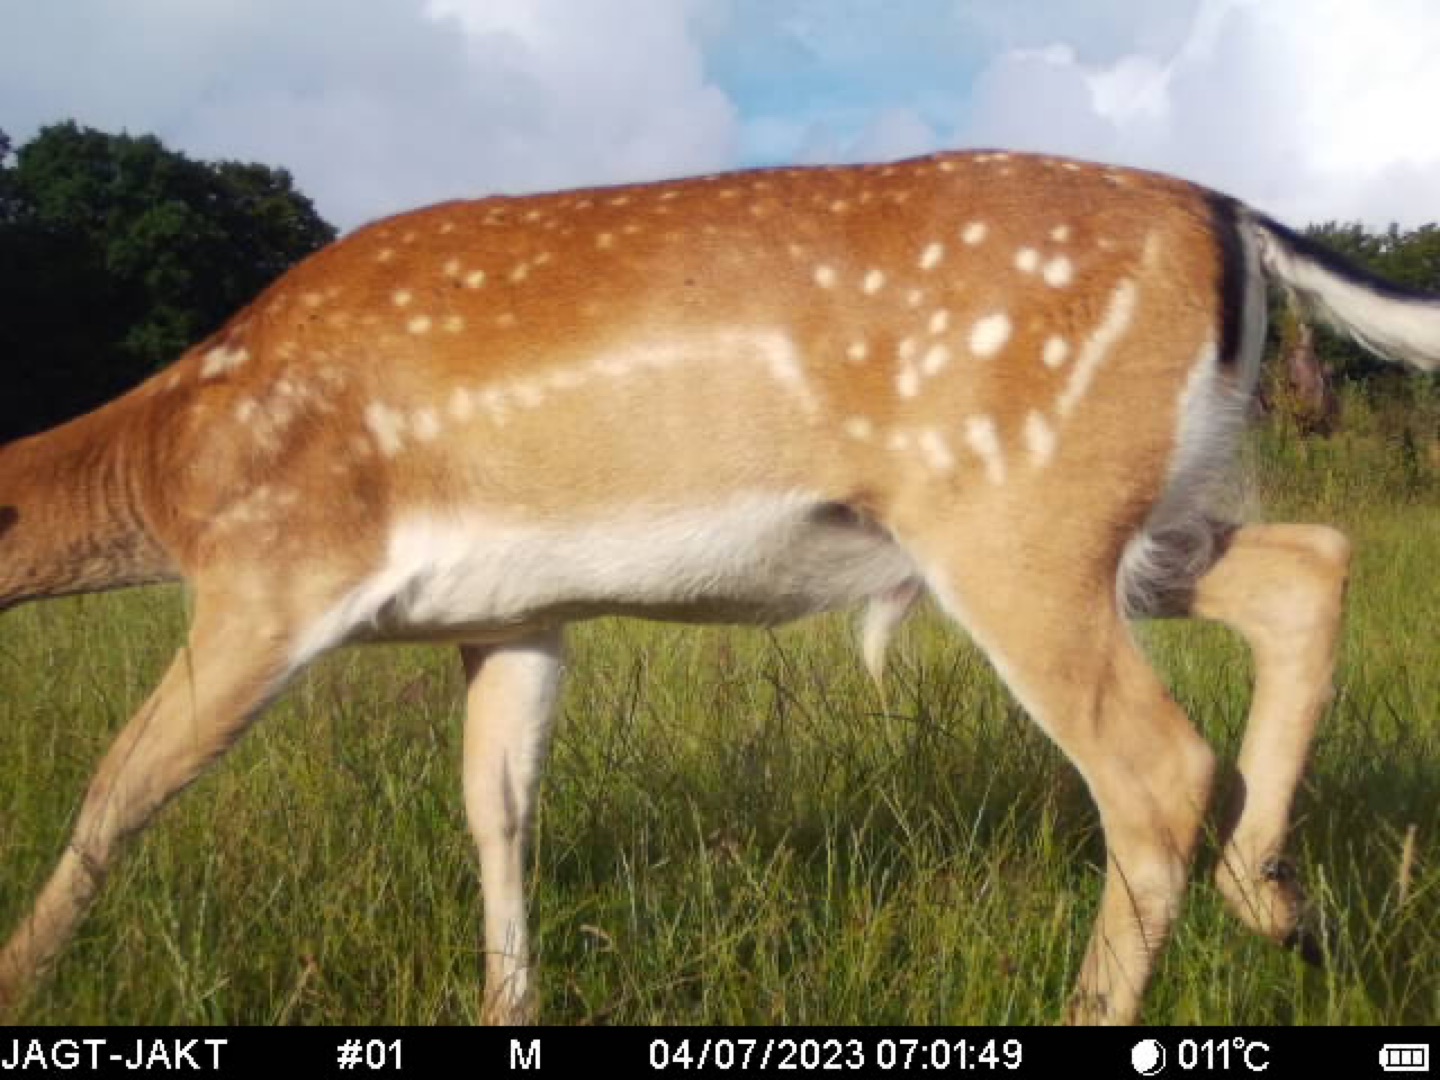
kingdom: Animalia
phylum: Chordata
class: Mammalia
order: Artiodactyla
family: Cervidae
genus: Dama
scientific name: Dama dama
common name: Dådyr
